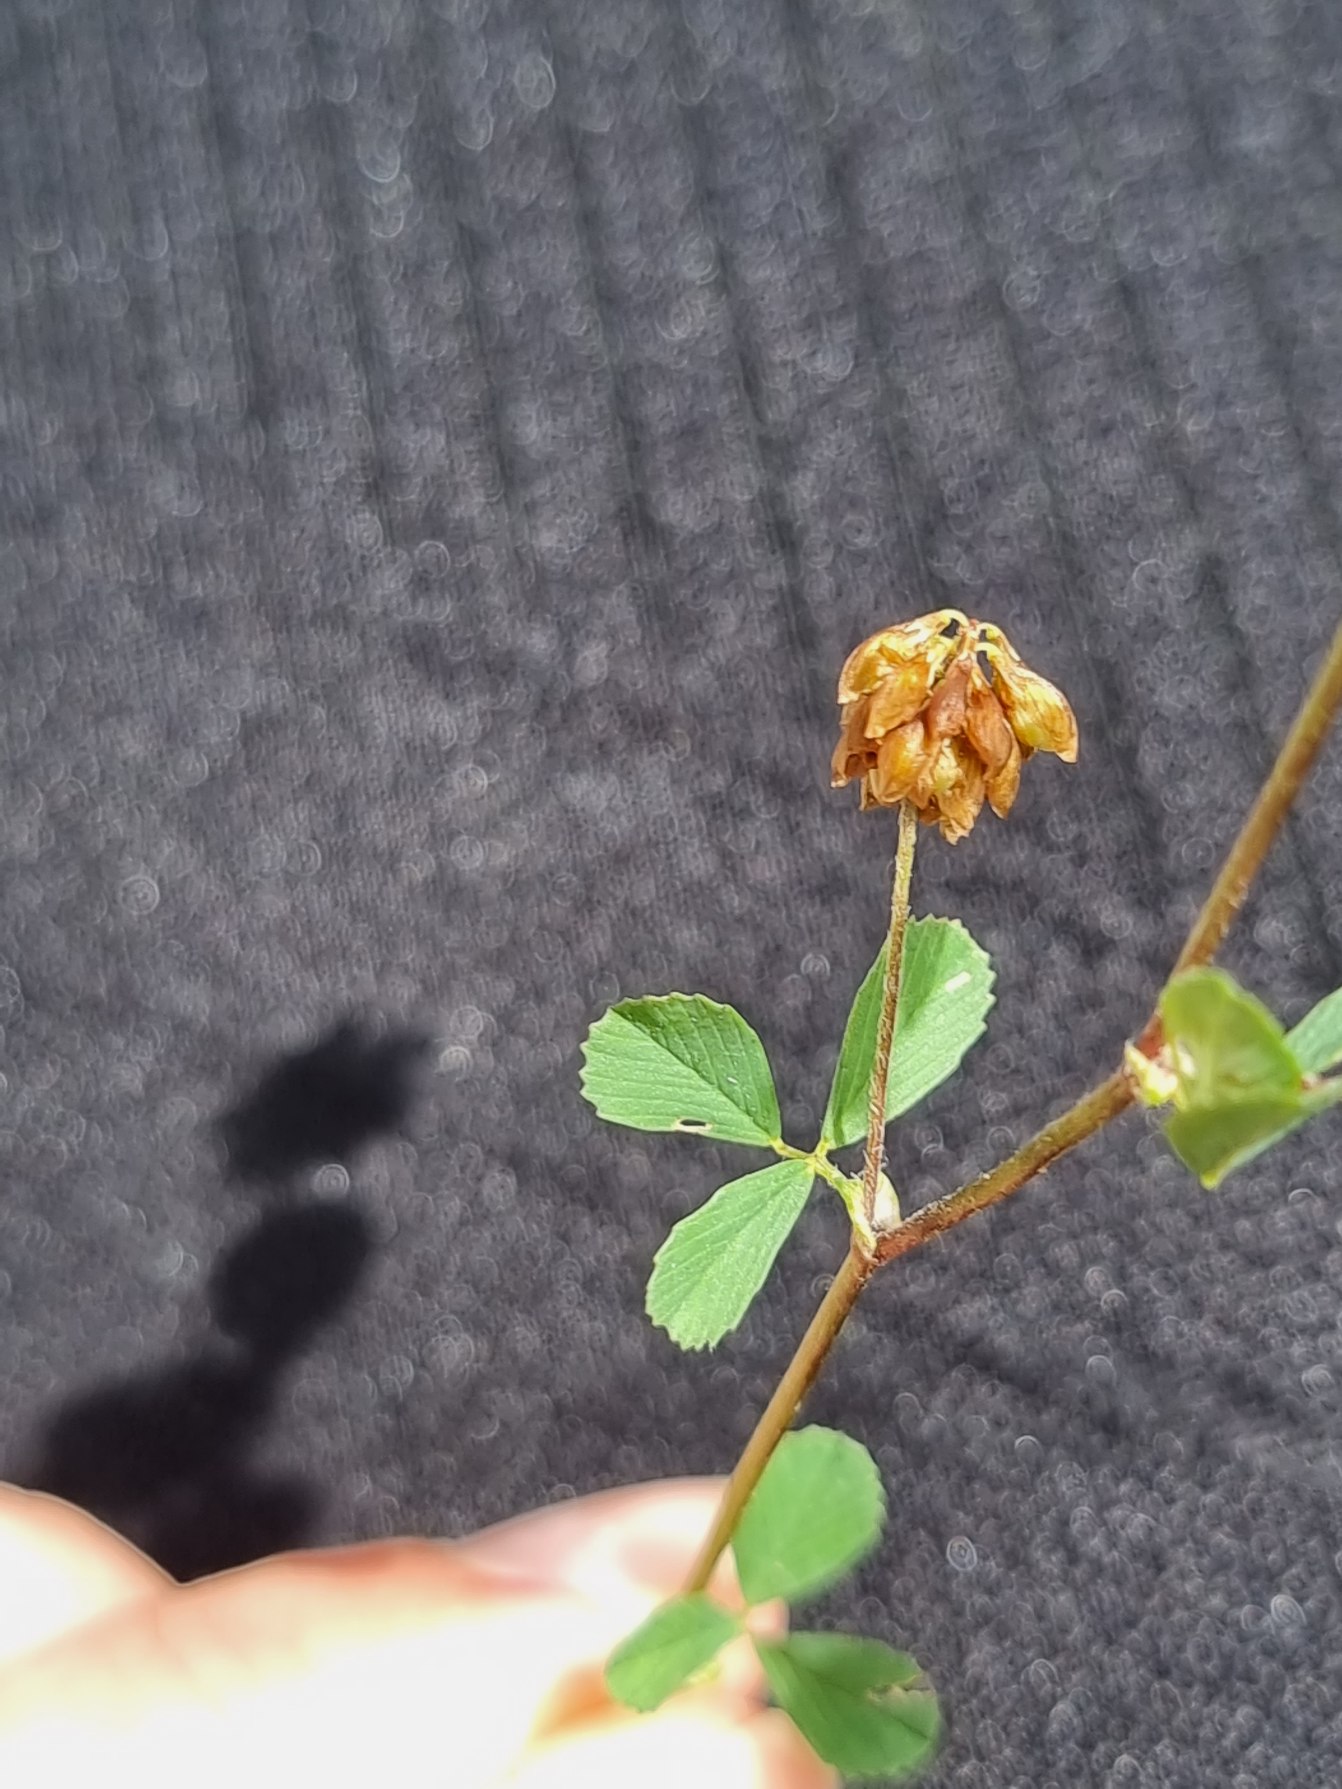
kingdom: Plantae
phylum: Tracheophyta
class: Magnoliopsida
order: Fabales
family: Fabaceae
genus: Trifolium
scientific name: Trifolium dubium
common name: Fin kløver
